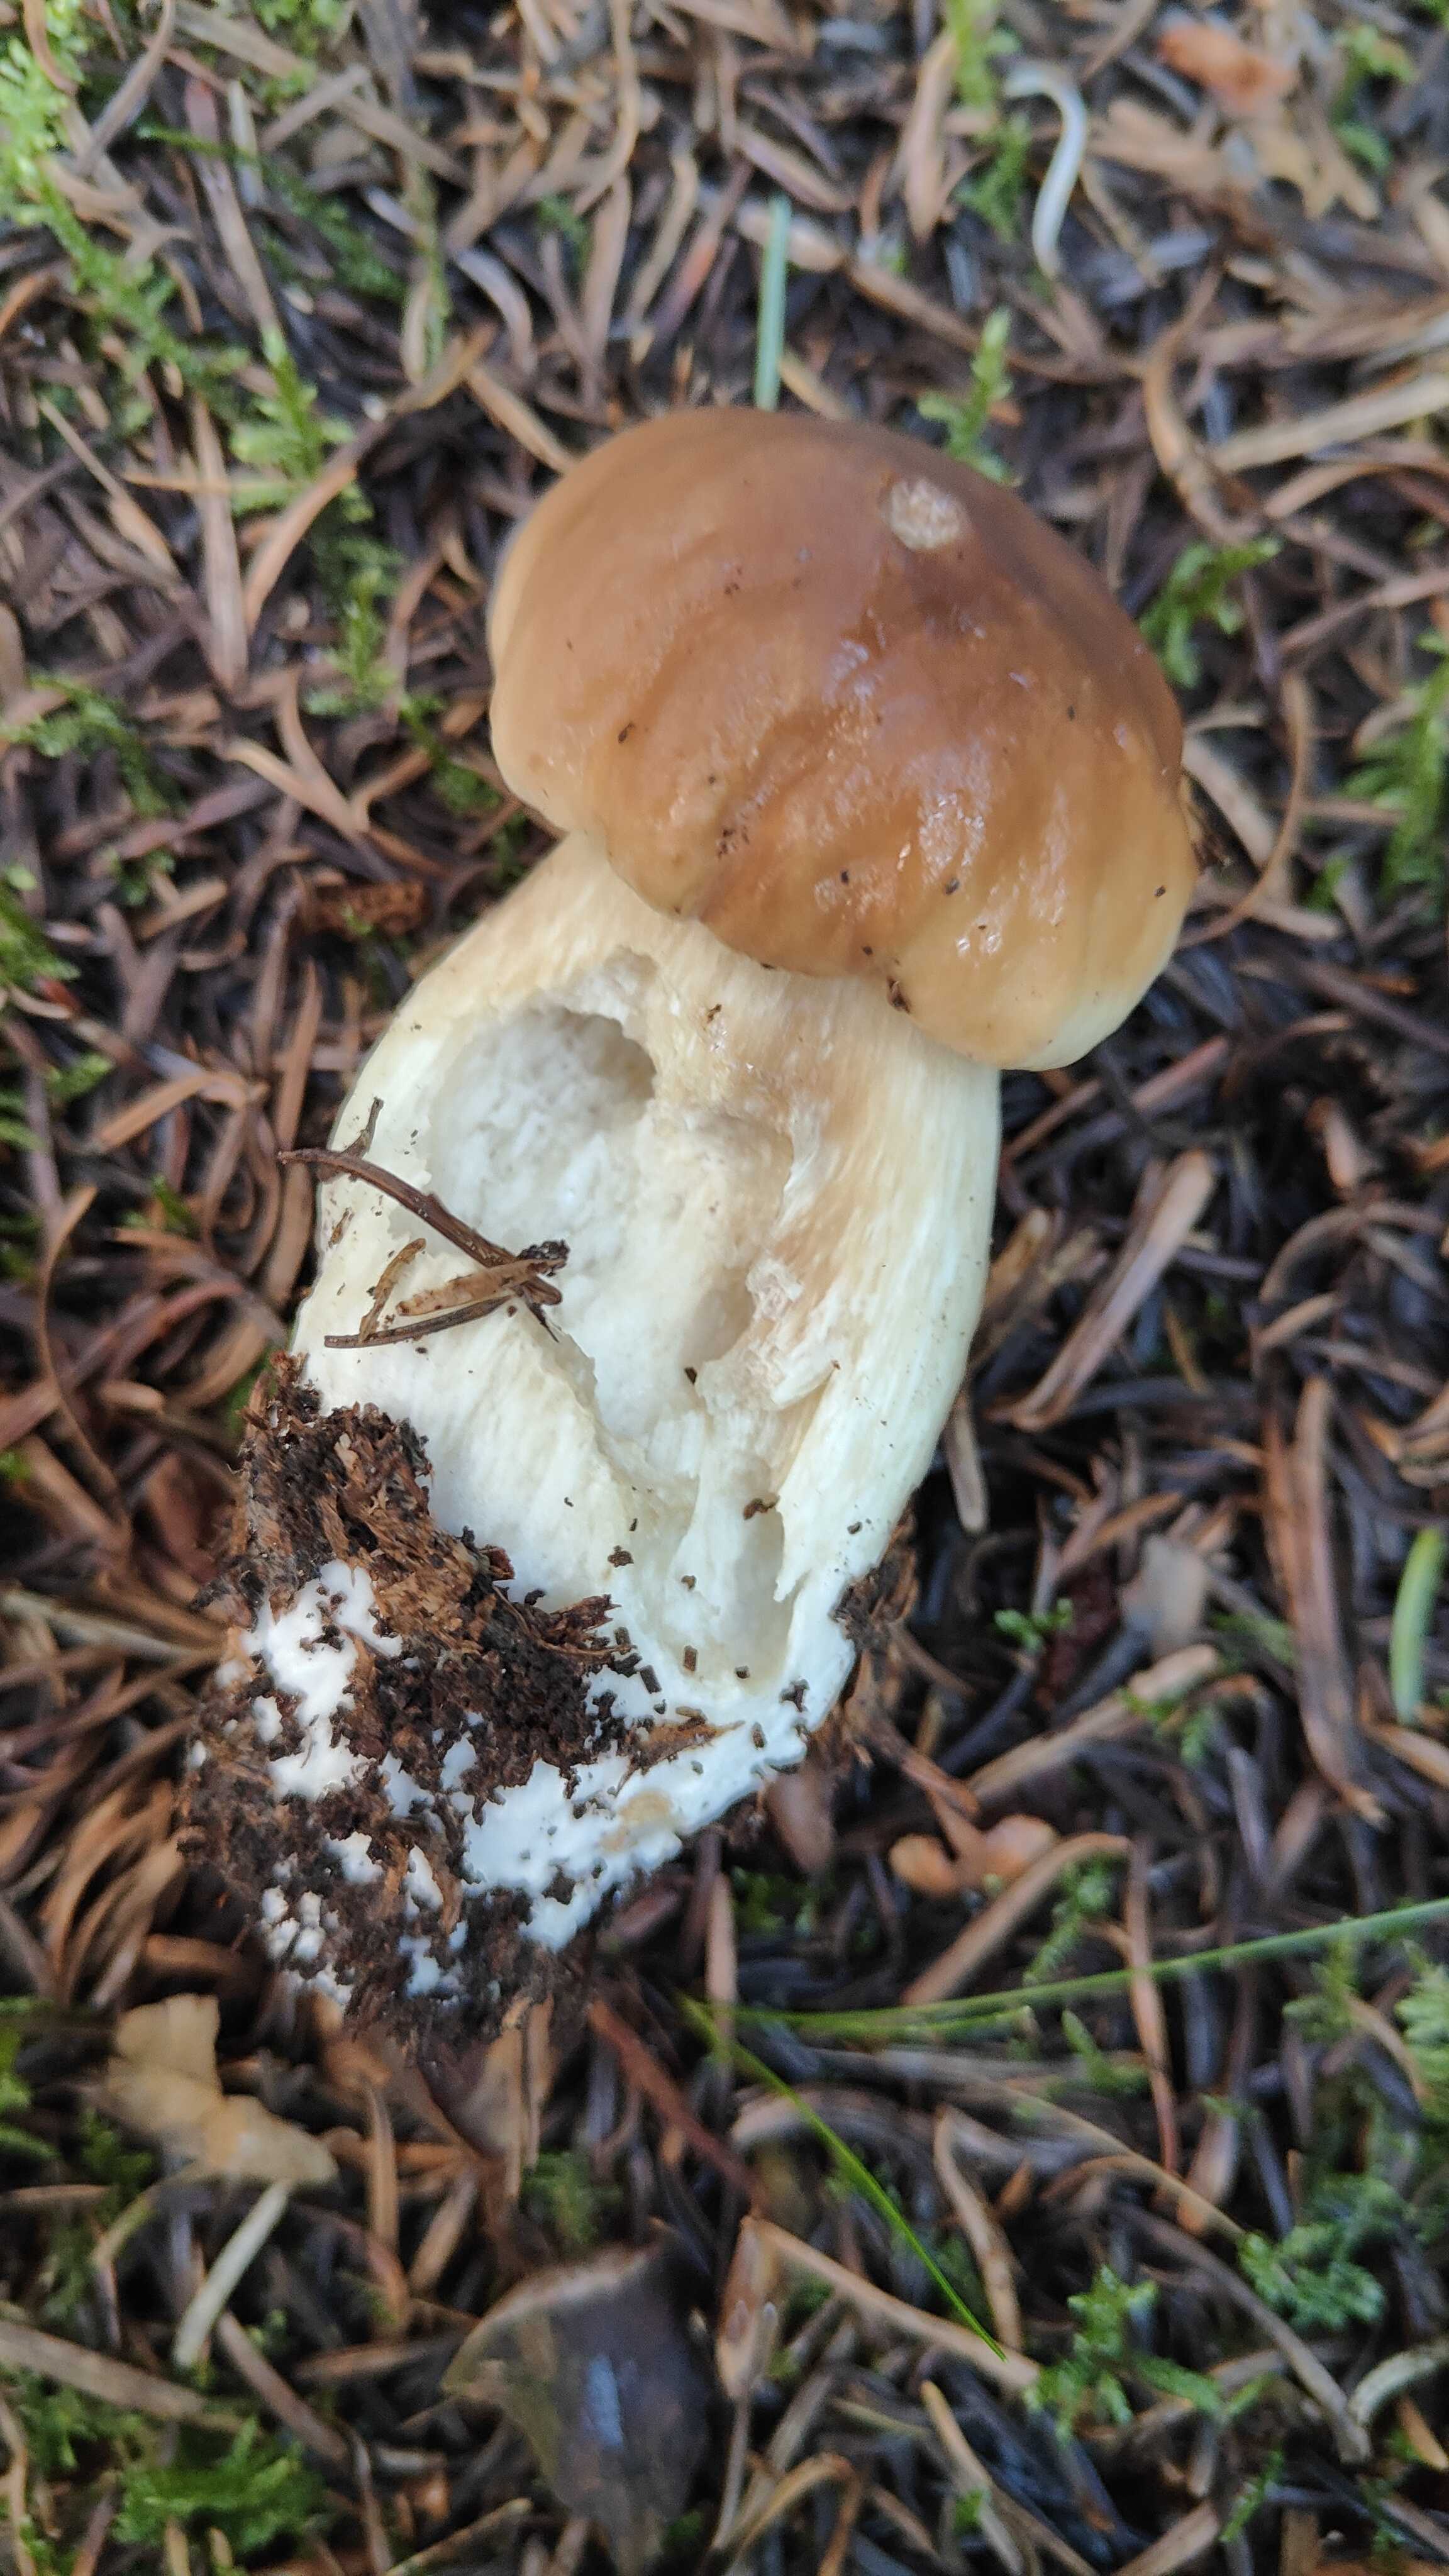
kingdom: Fungi
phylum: Basidiomycota
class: Agaricomycetes
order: Boletales
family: Boletaceae
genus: Boletus
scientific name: Boletus edulis
